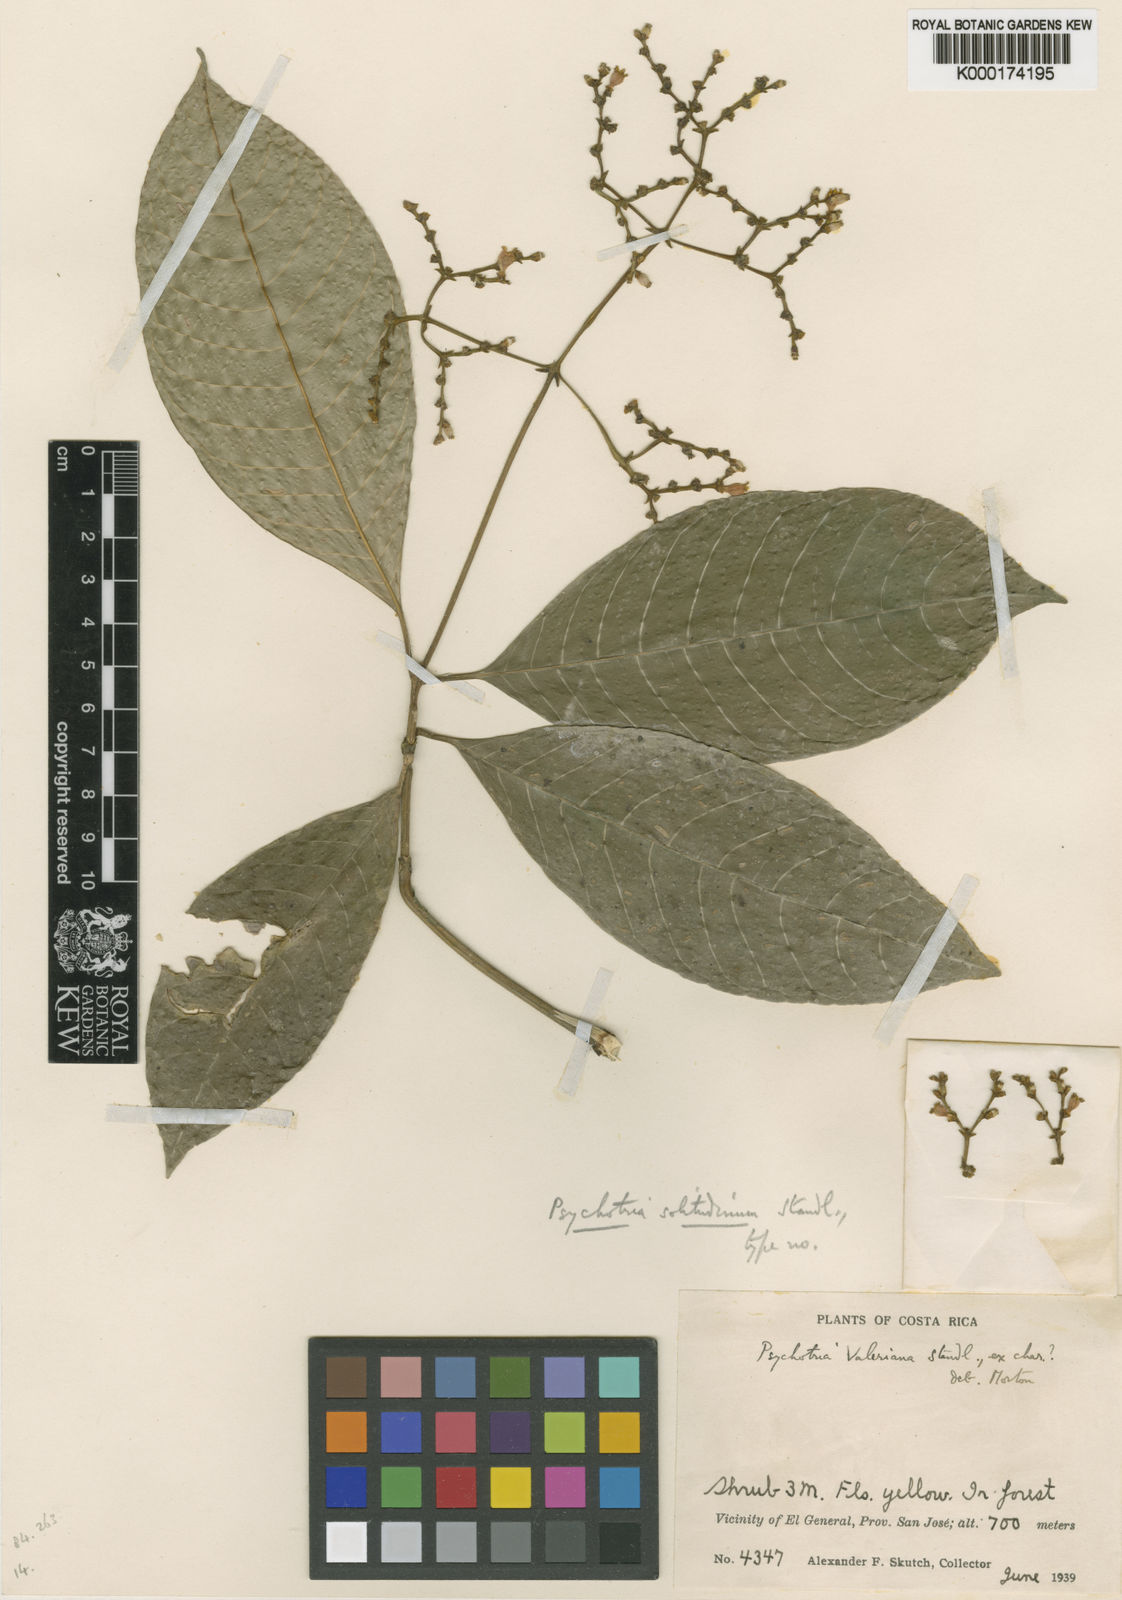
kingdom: Plantae
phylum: Tracheophyta
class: Magnoliopsida
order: Gentianales
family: Rubiaceae
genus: Palicourea
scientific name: Palicourea solitudinum
